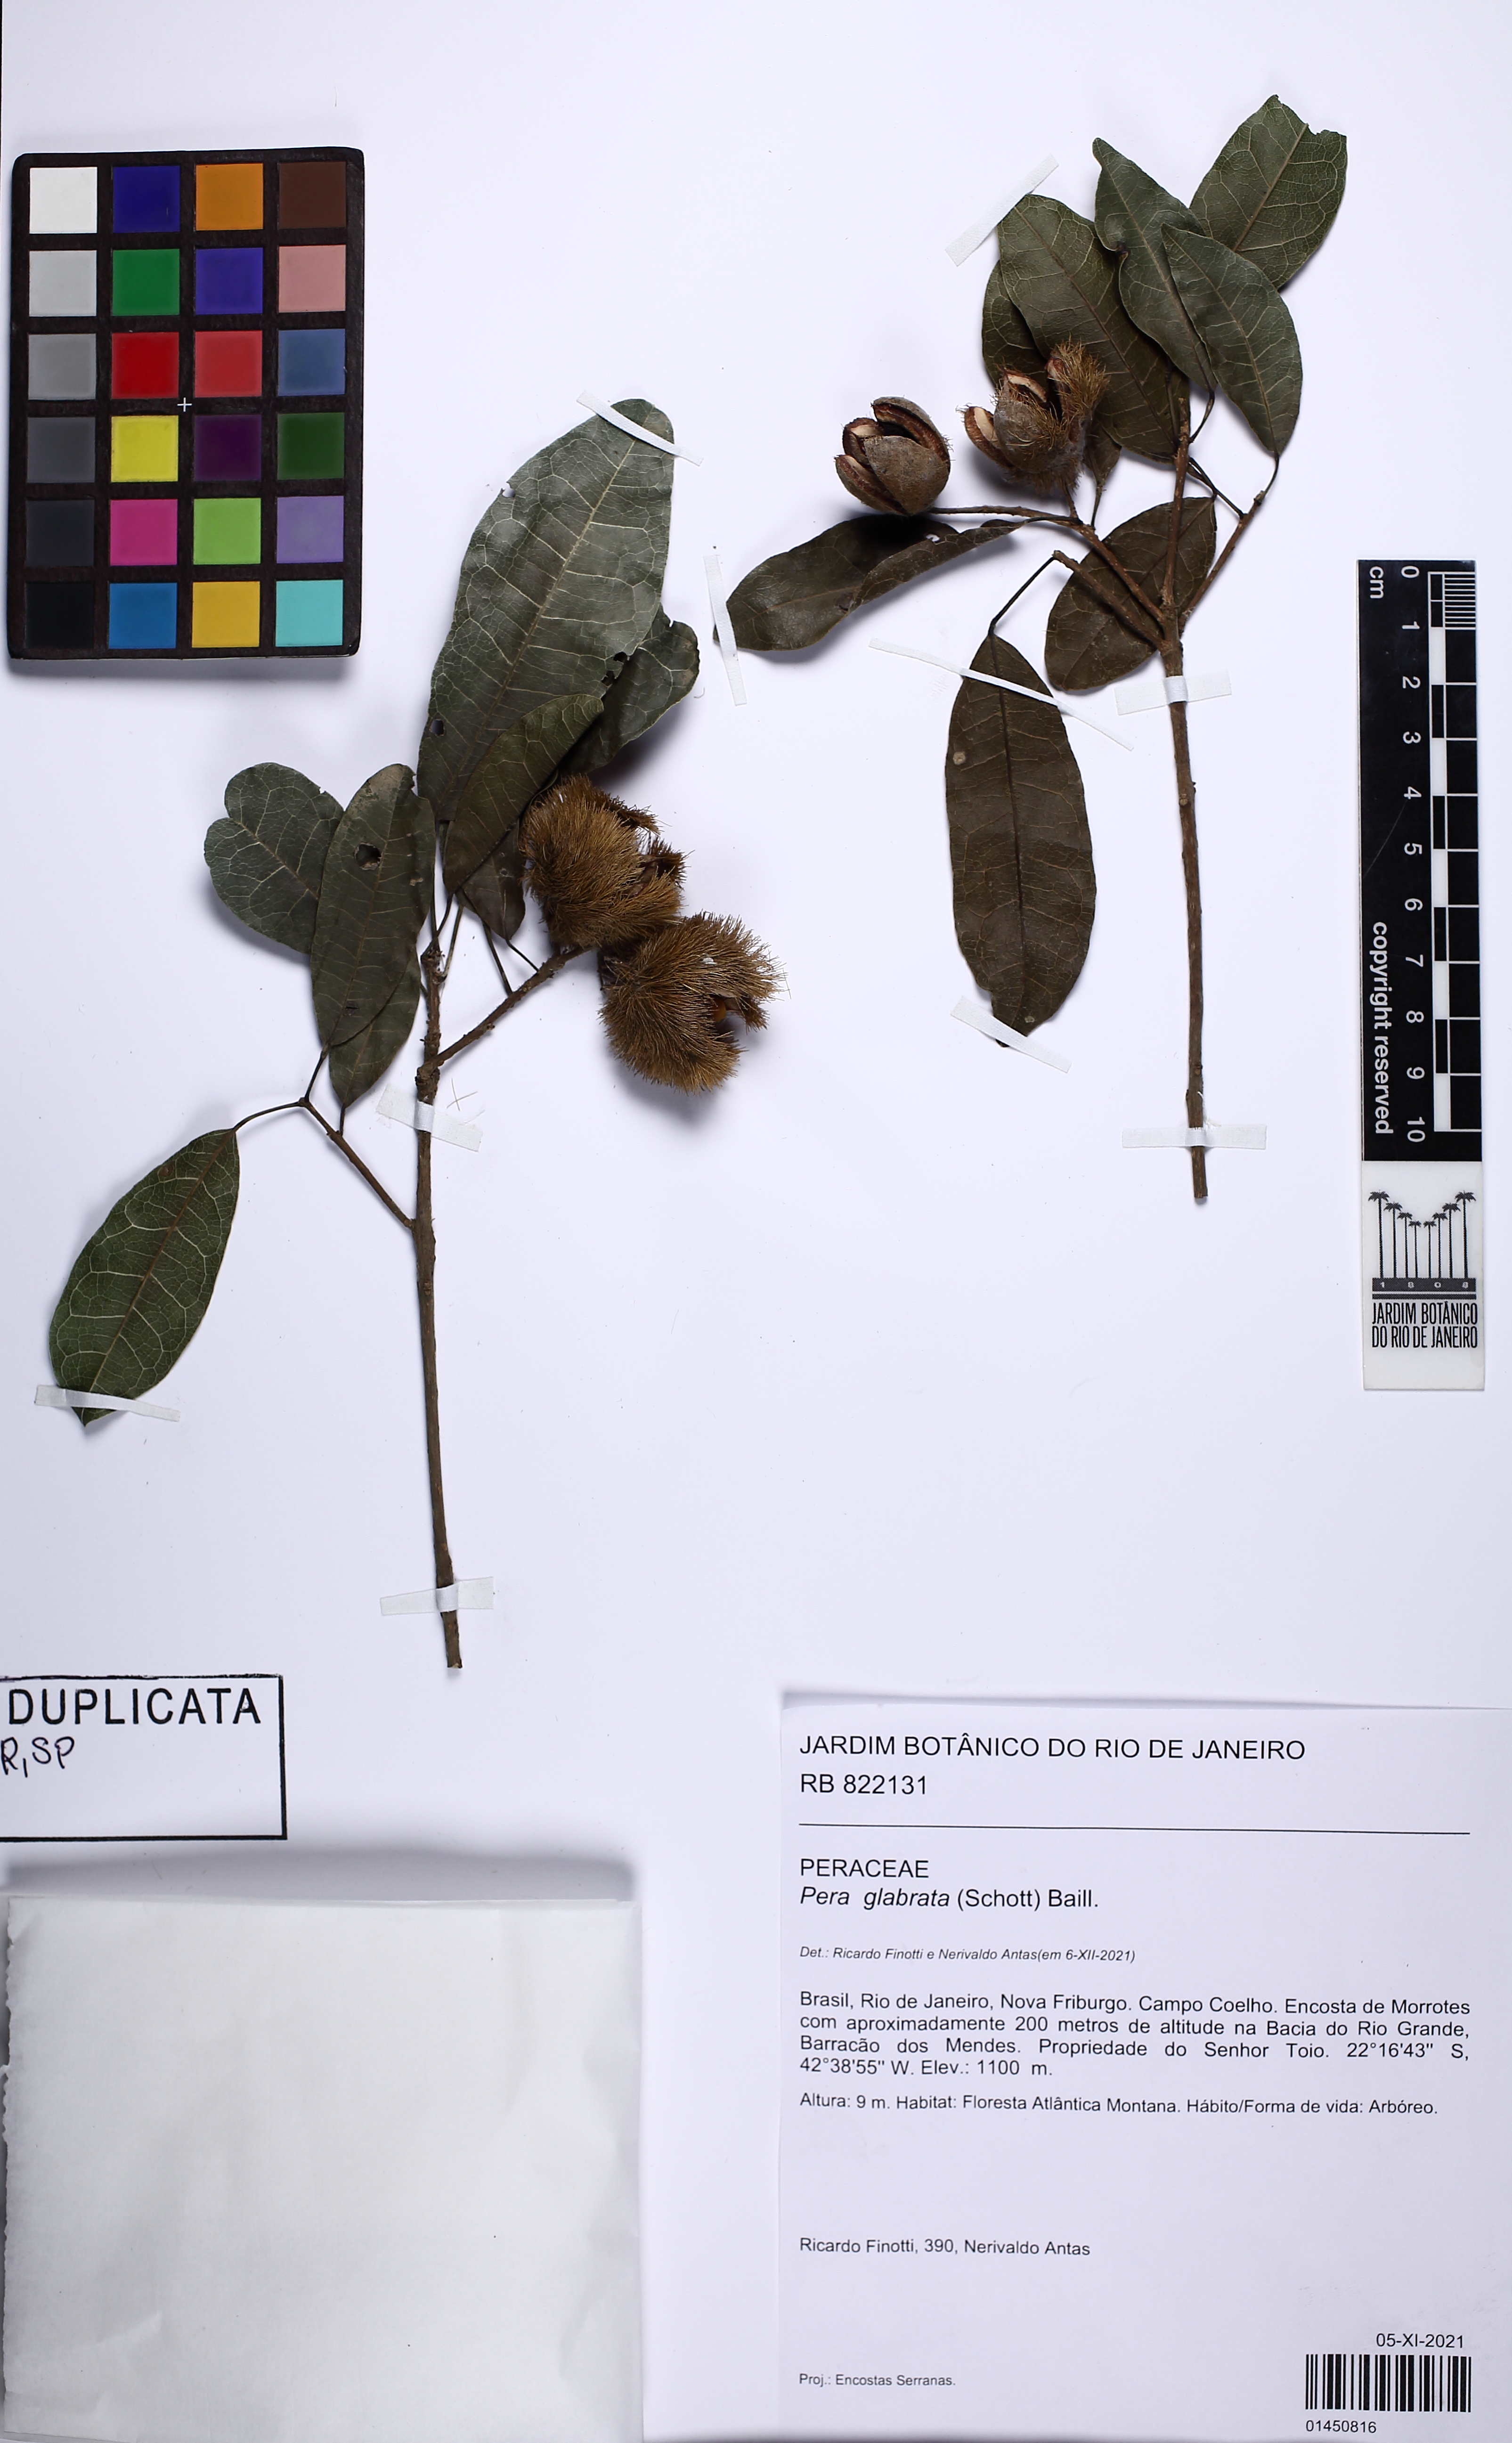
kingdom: Plantae
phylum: Tracheophyta
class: Magnoliopsida
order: Malpighiales
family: Peraceae
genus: Pera
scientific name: Pera glabrata
